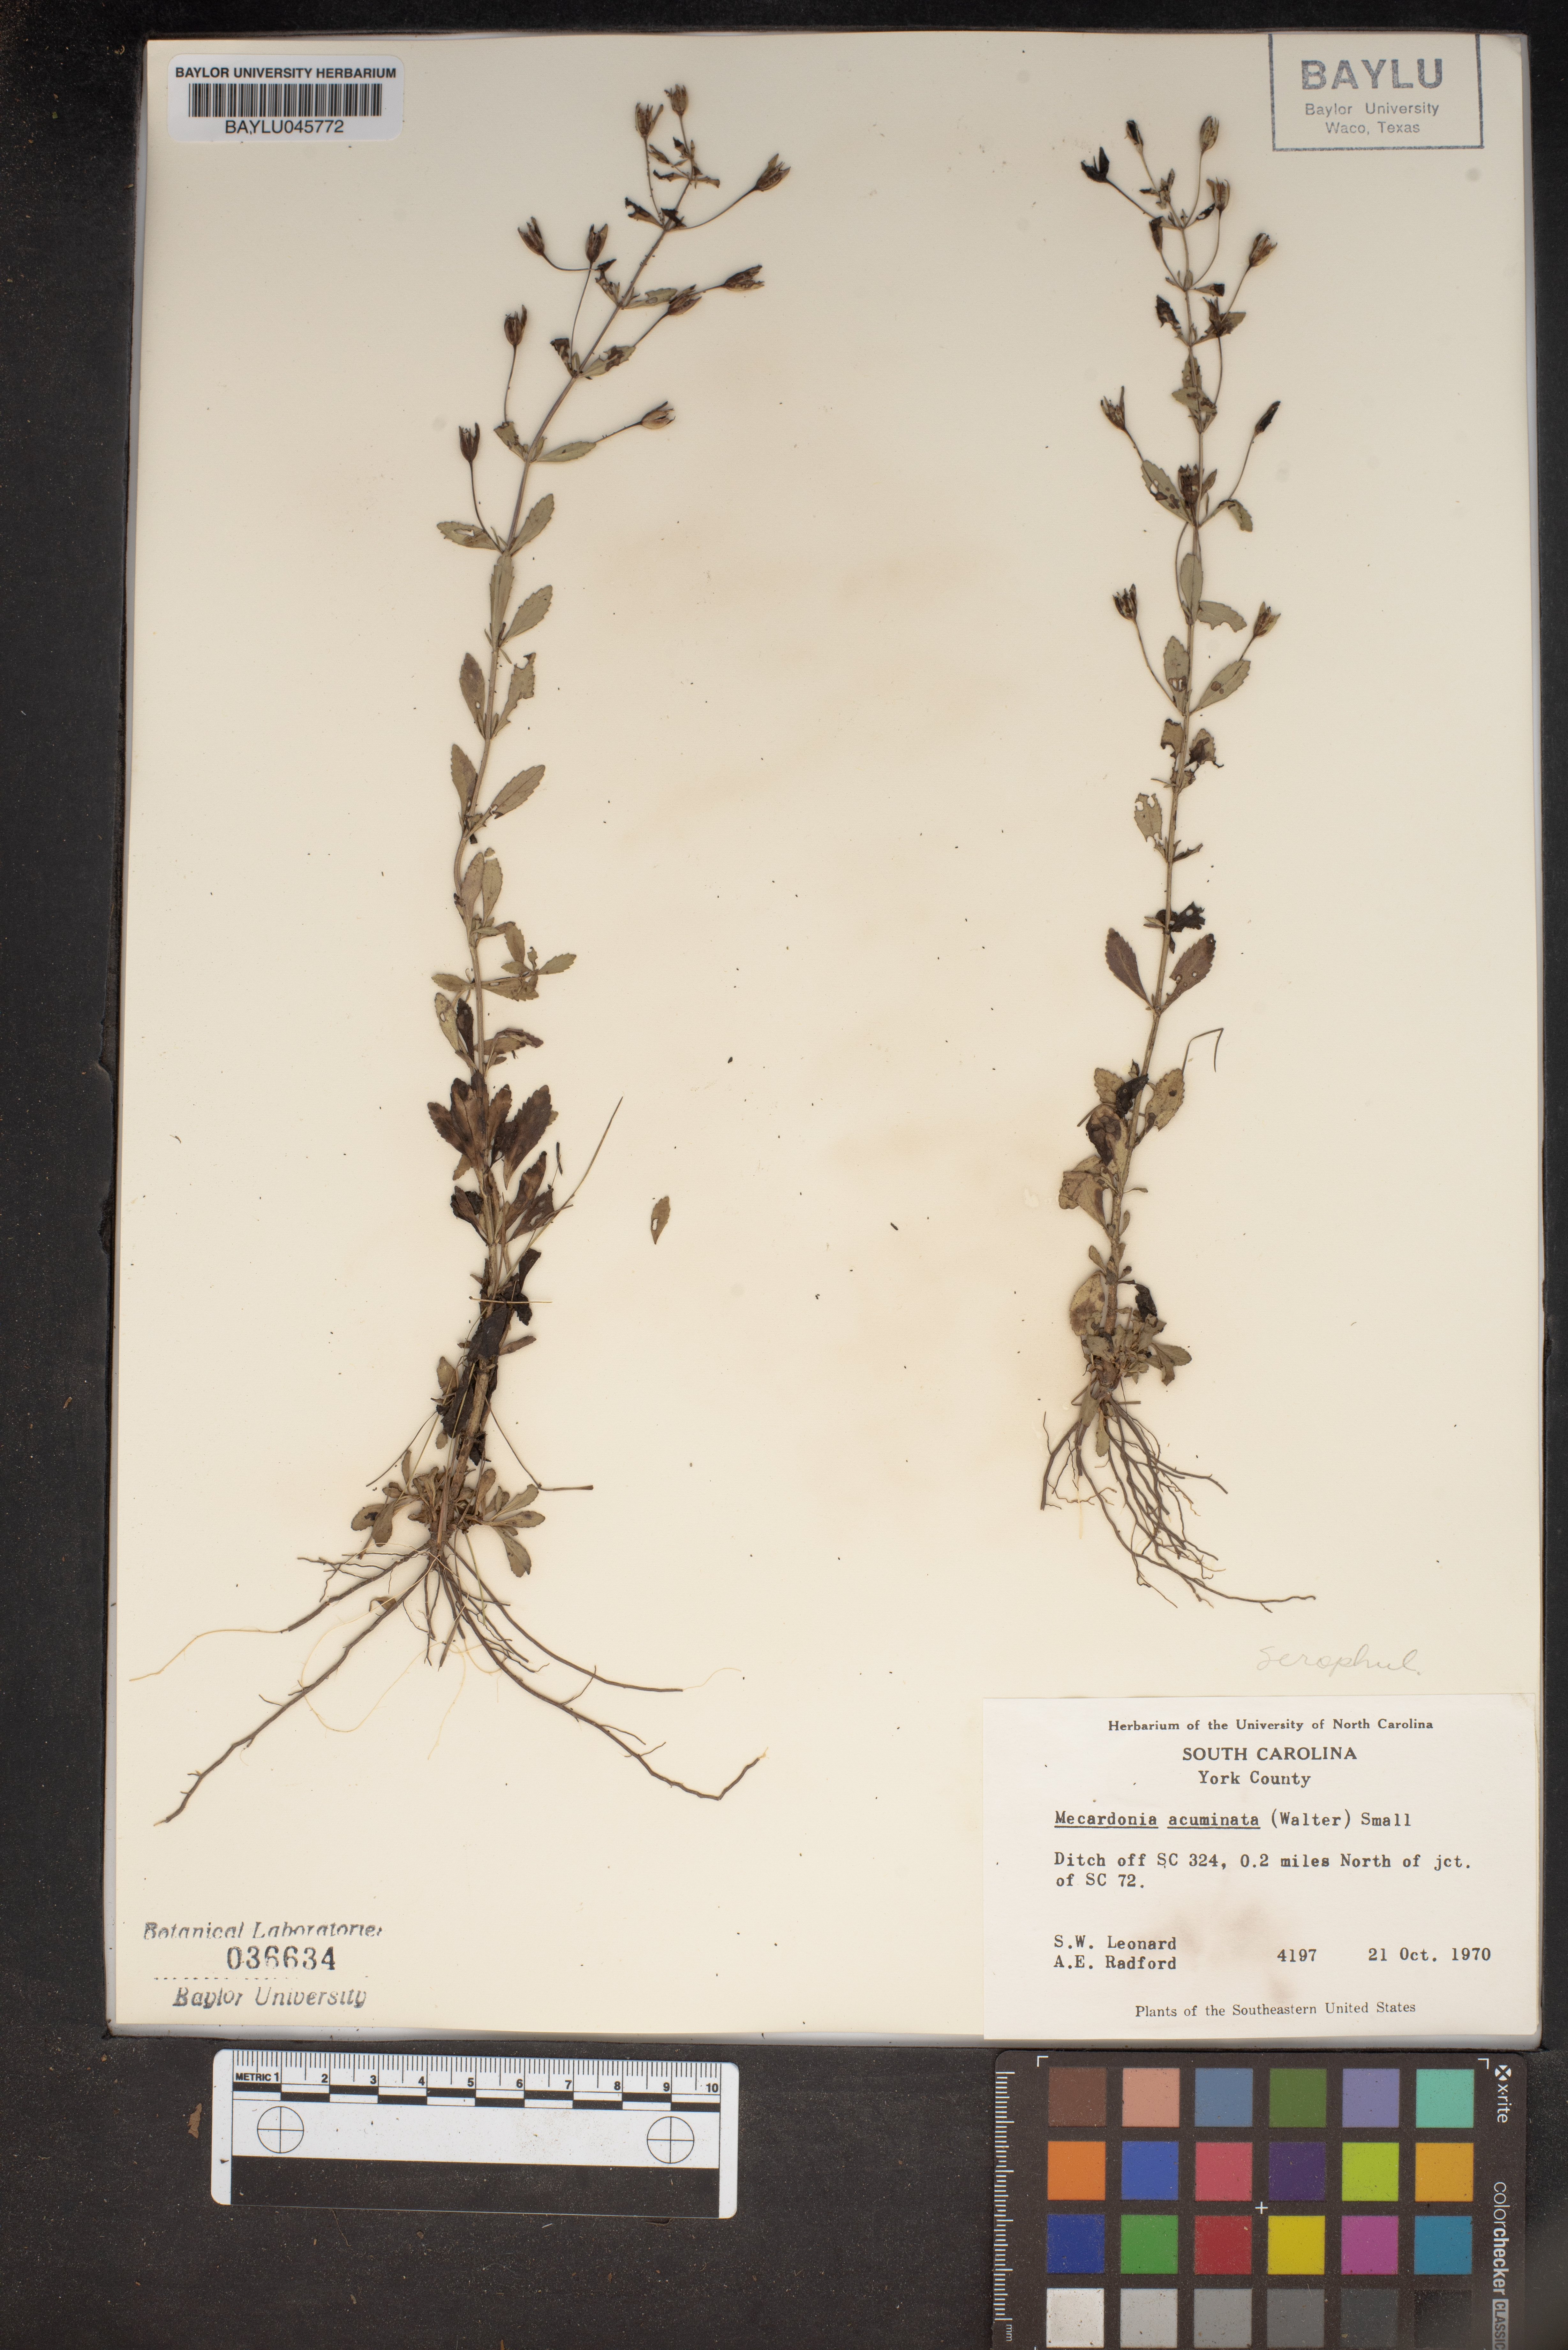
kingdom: Plantae
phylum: Tracheophyta
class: Magnoliopsida
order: Lamiales
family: Plantaginaceae
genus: Mecardonia
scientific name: Mecardonia acuminata
